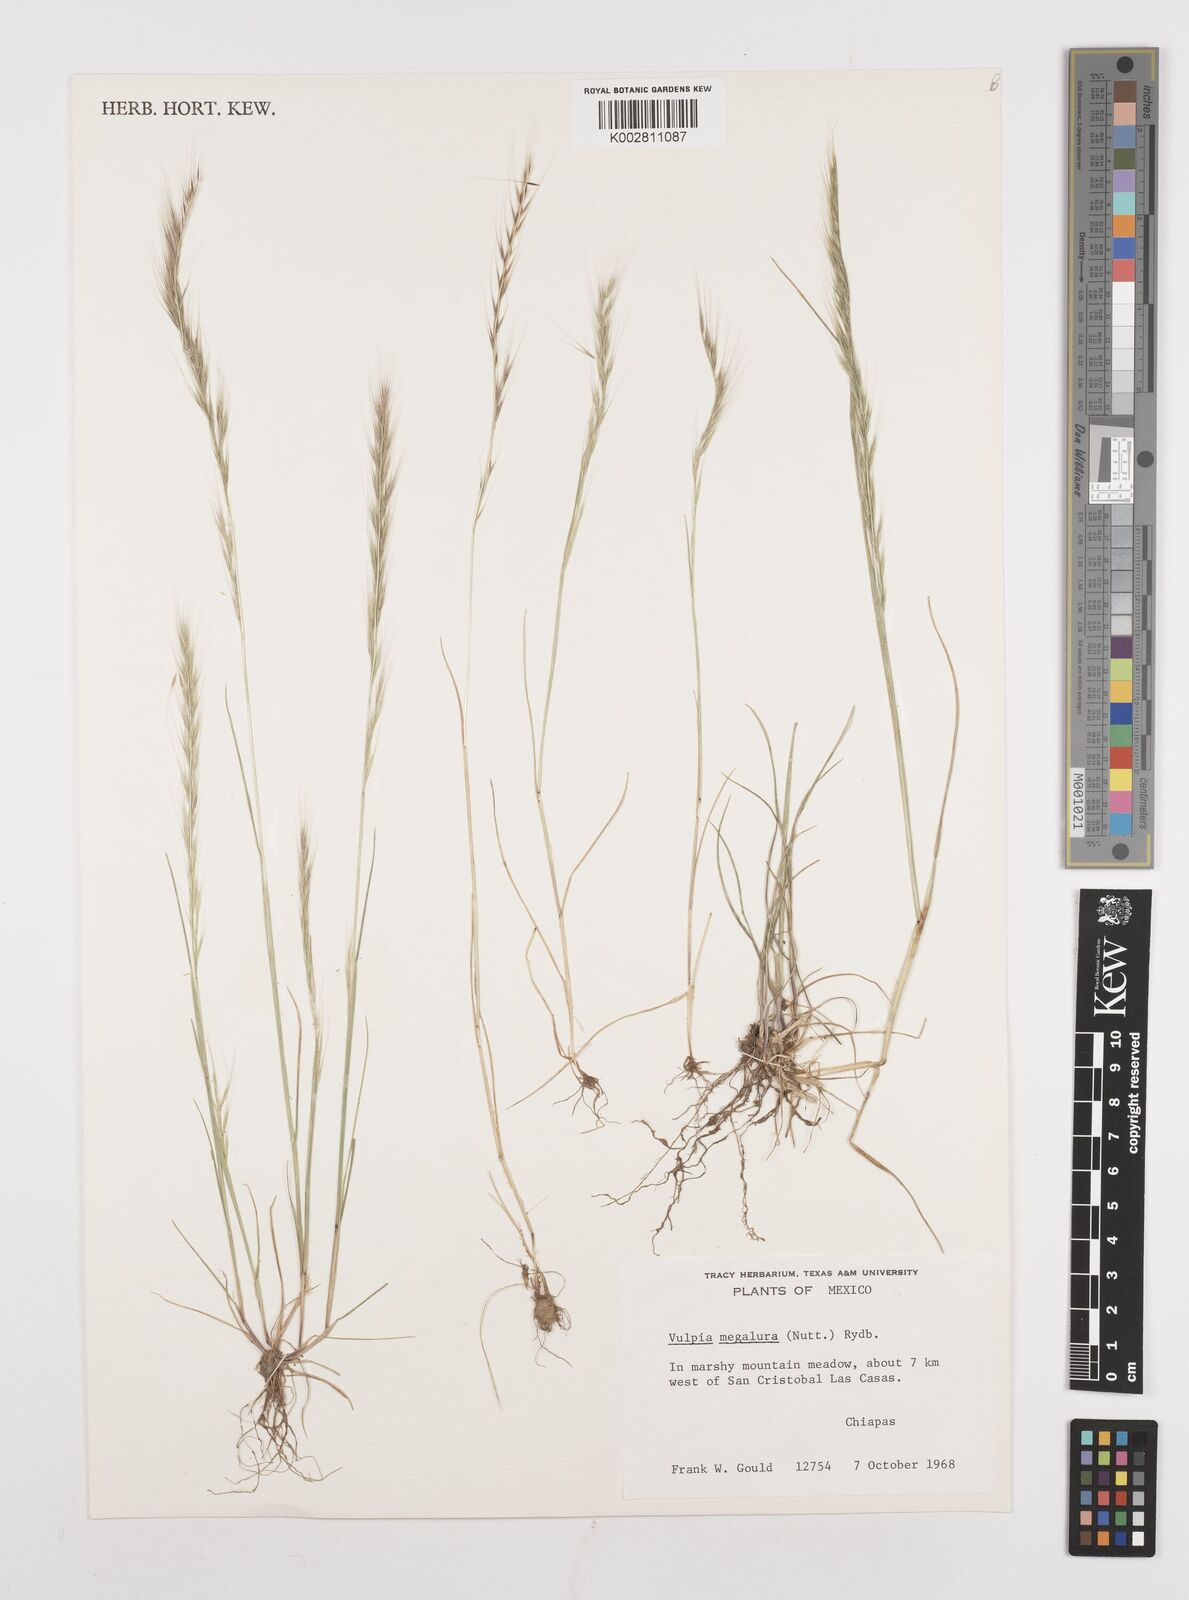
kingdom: Plantae
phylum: Tracheophyta
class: Liliopsida
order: Poales
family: Poaceae
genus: Festuca
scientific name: Festuca myuros
